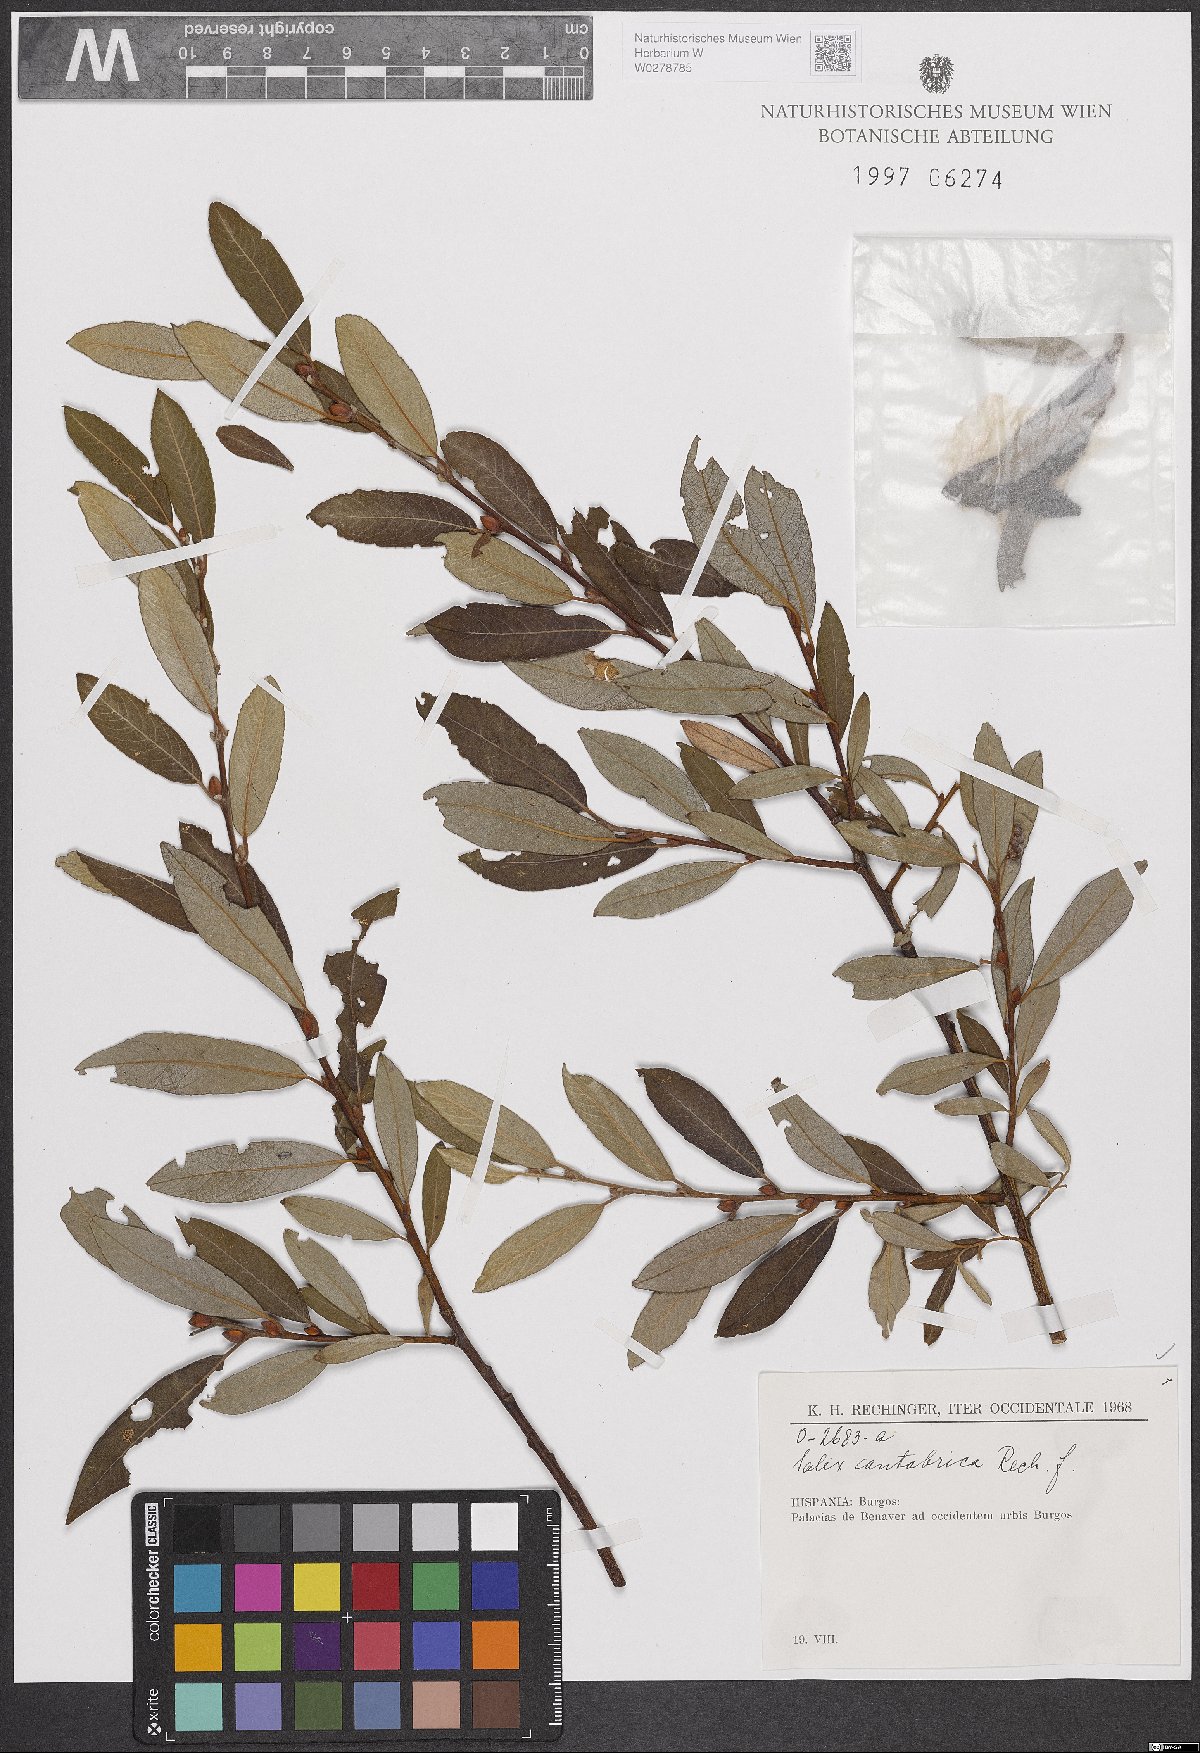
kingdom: Plantae
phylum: Tracheophyta
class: Magnoliopsida
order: Malpighiales
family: Salicaceae
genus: Salix
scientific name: Salix cantabrica
